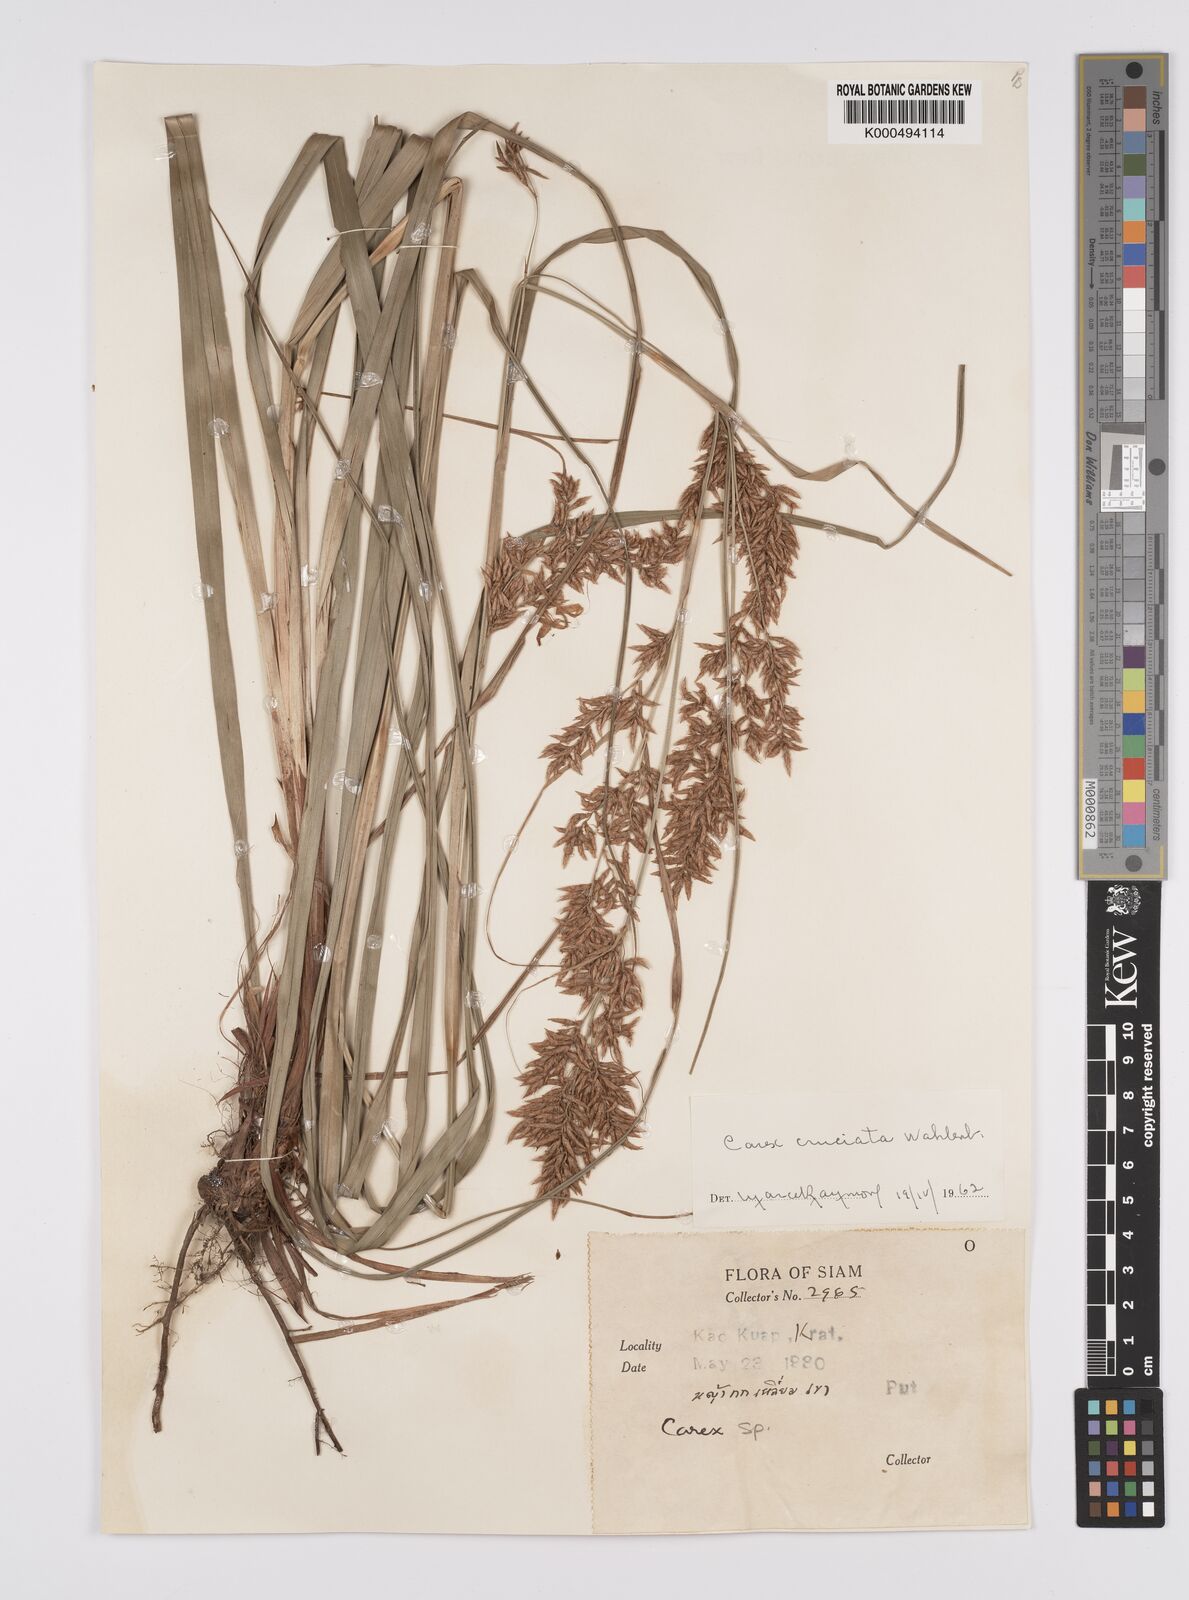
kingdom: Plantae
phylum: Tracheophyta
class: Liliopsida
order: Poales
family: Cyperaceae
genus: Carex
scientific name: Carex cruciata
